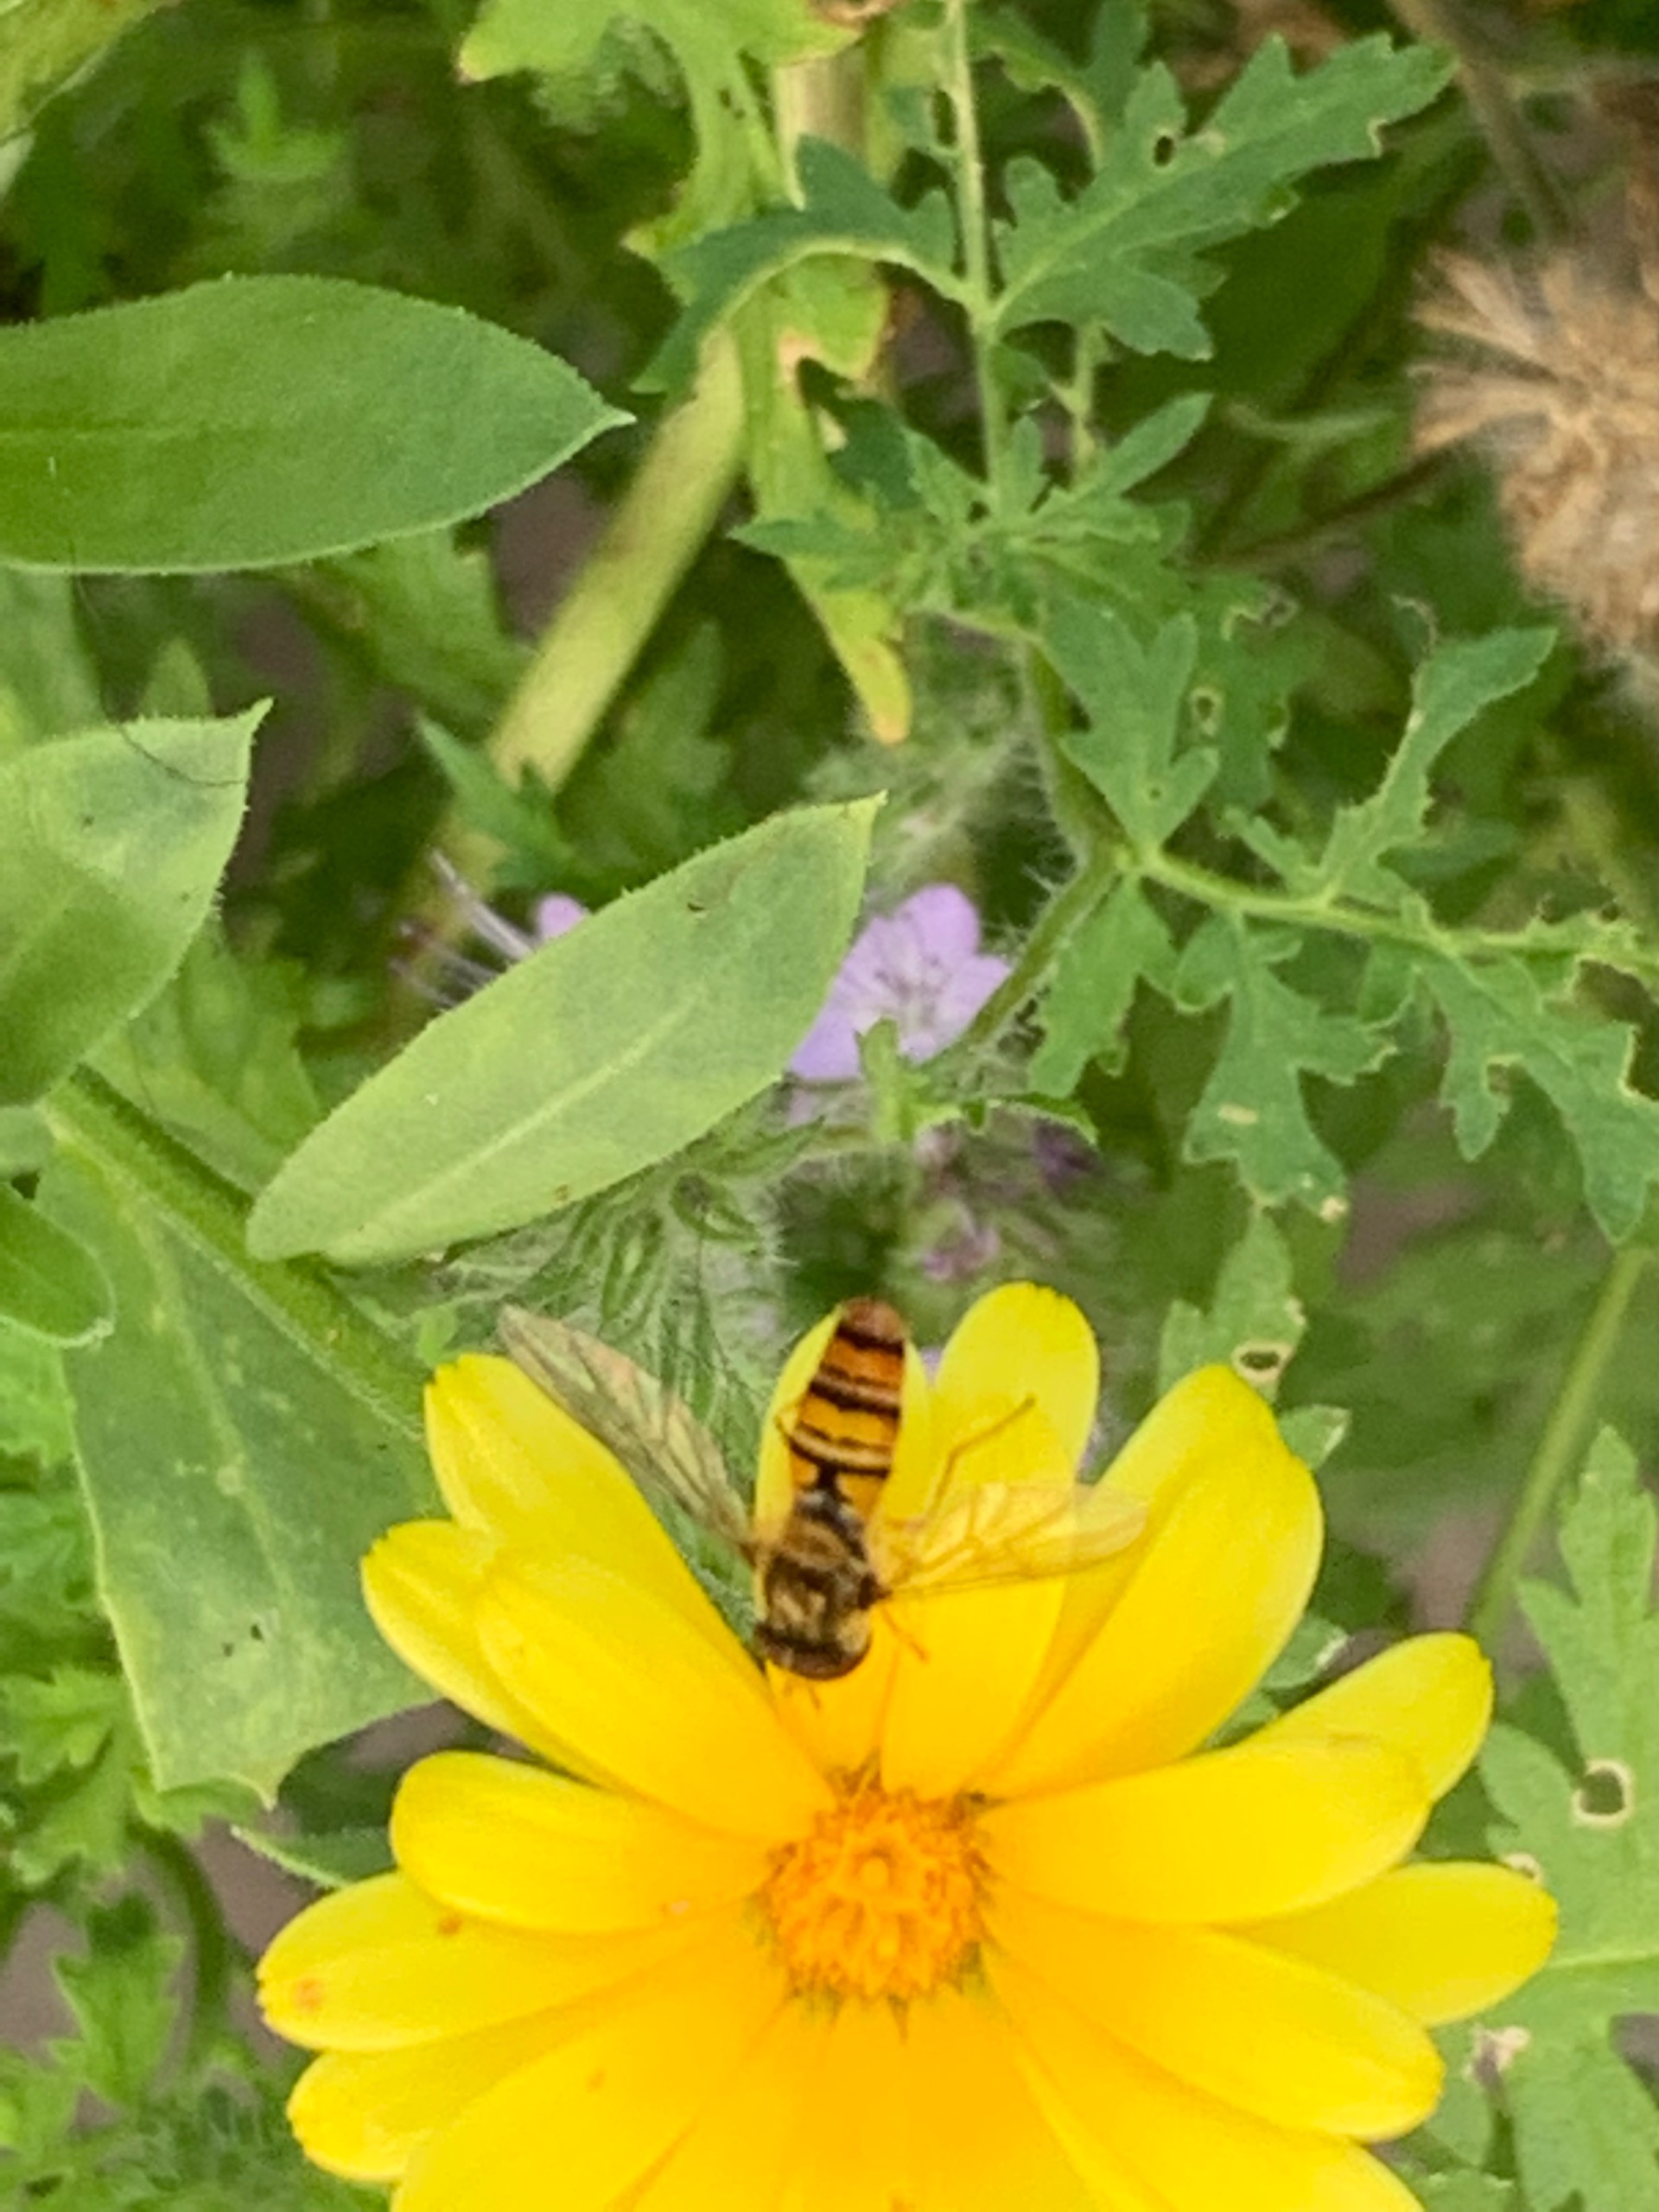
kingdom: Animalia
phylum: Arthropoda
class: Insecta
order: Diptera
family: Syrphidae
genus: Episyrphus
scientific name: Episyrphus balteatus
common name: Dobbeltbåndet svirreflue
